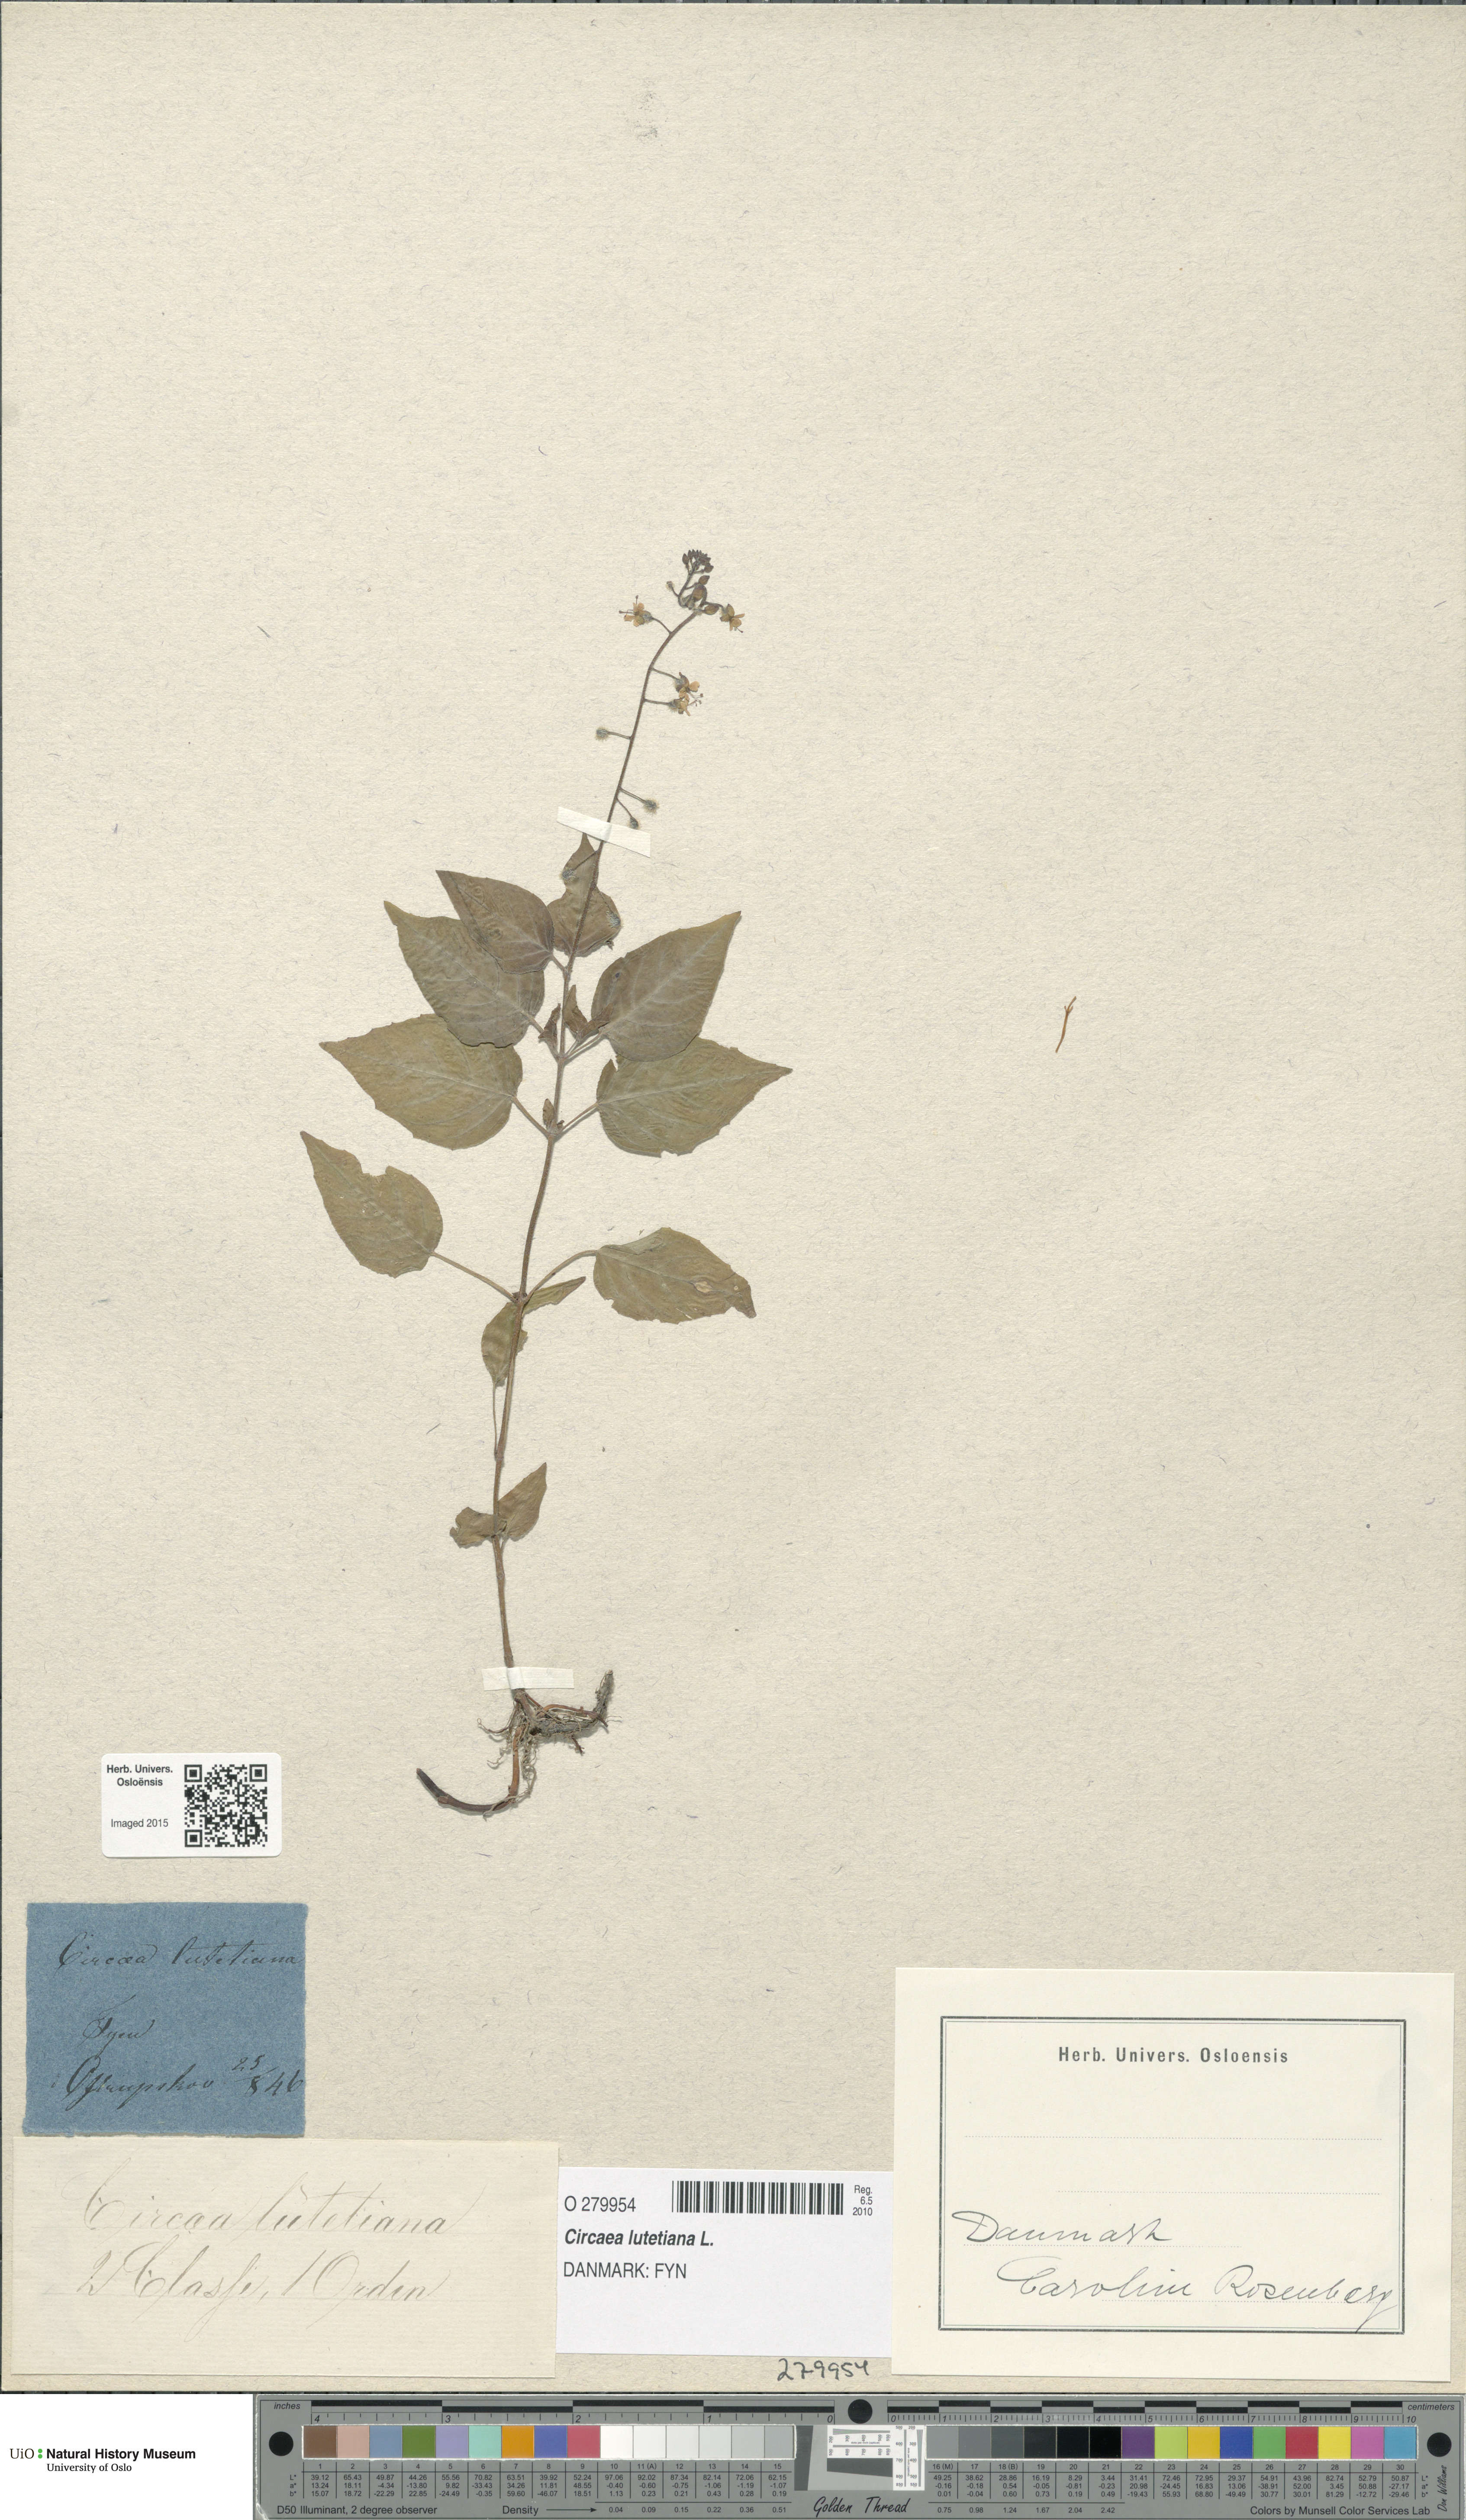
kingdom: Plantae
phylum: Tracheophyta
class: Magnoliopsida
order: Myrtales
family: Onagraceae
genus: Circaea
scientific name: Circaea lutetiana
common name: Enchanter's-nightshade
